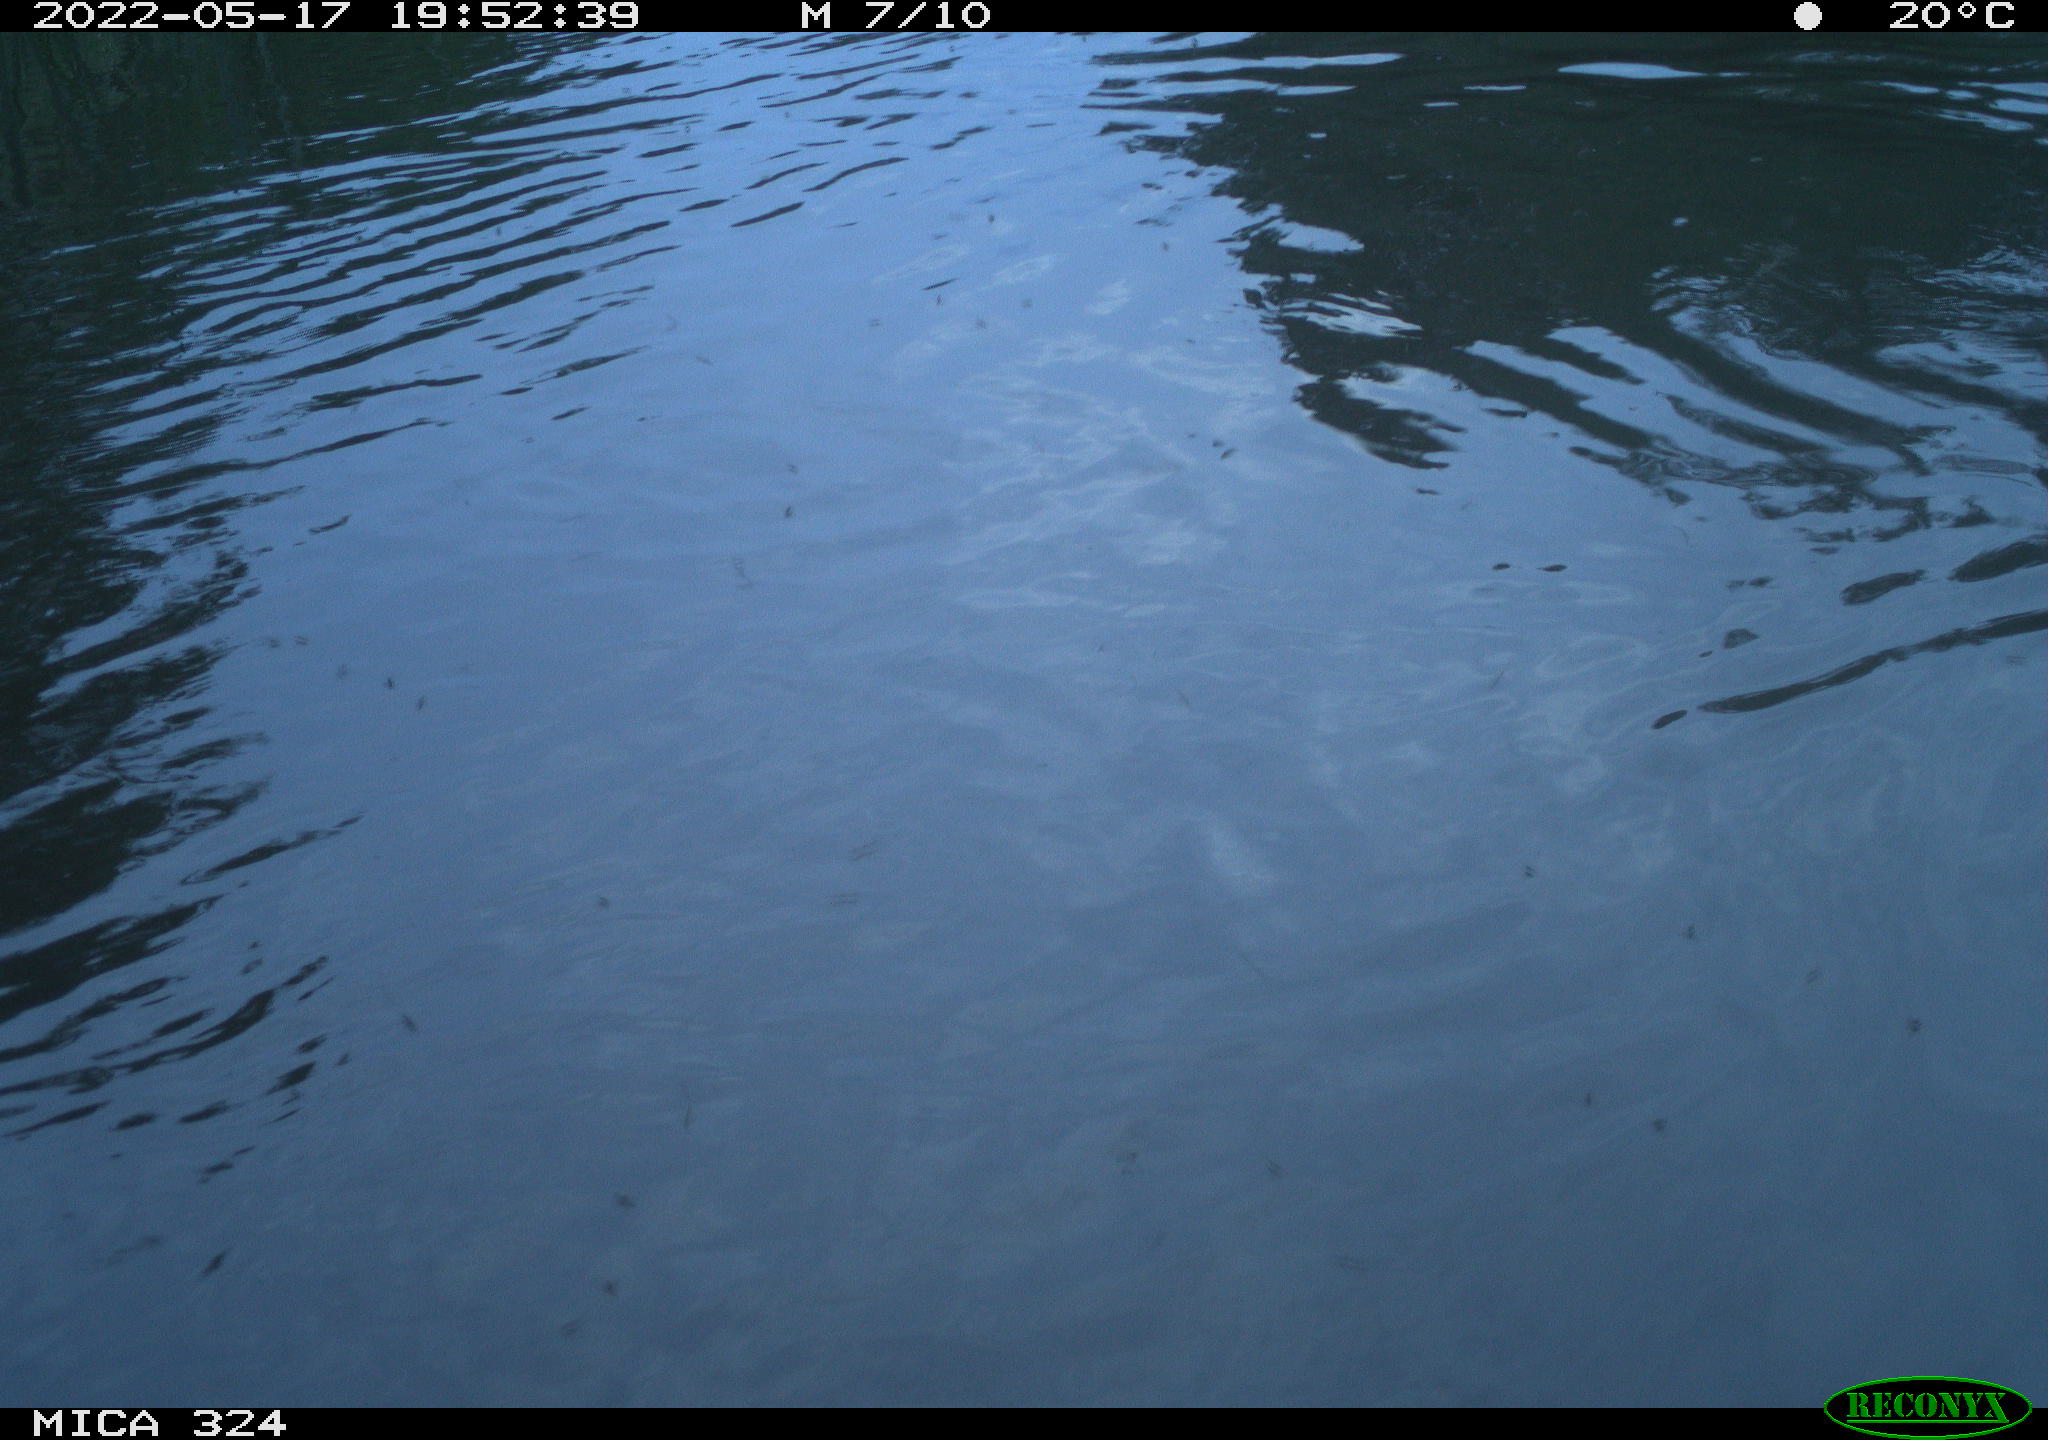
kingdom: Animalia
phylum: Chordata
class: Aves
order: Gruiformes
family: Rallidae
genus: Fulica
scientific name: Fulica atra
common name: Eurasian coot
